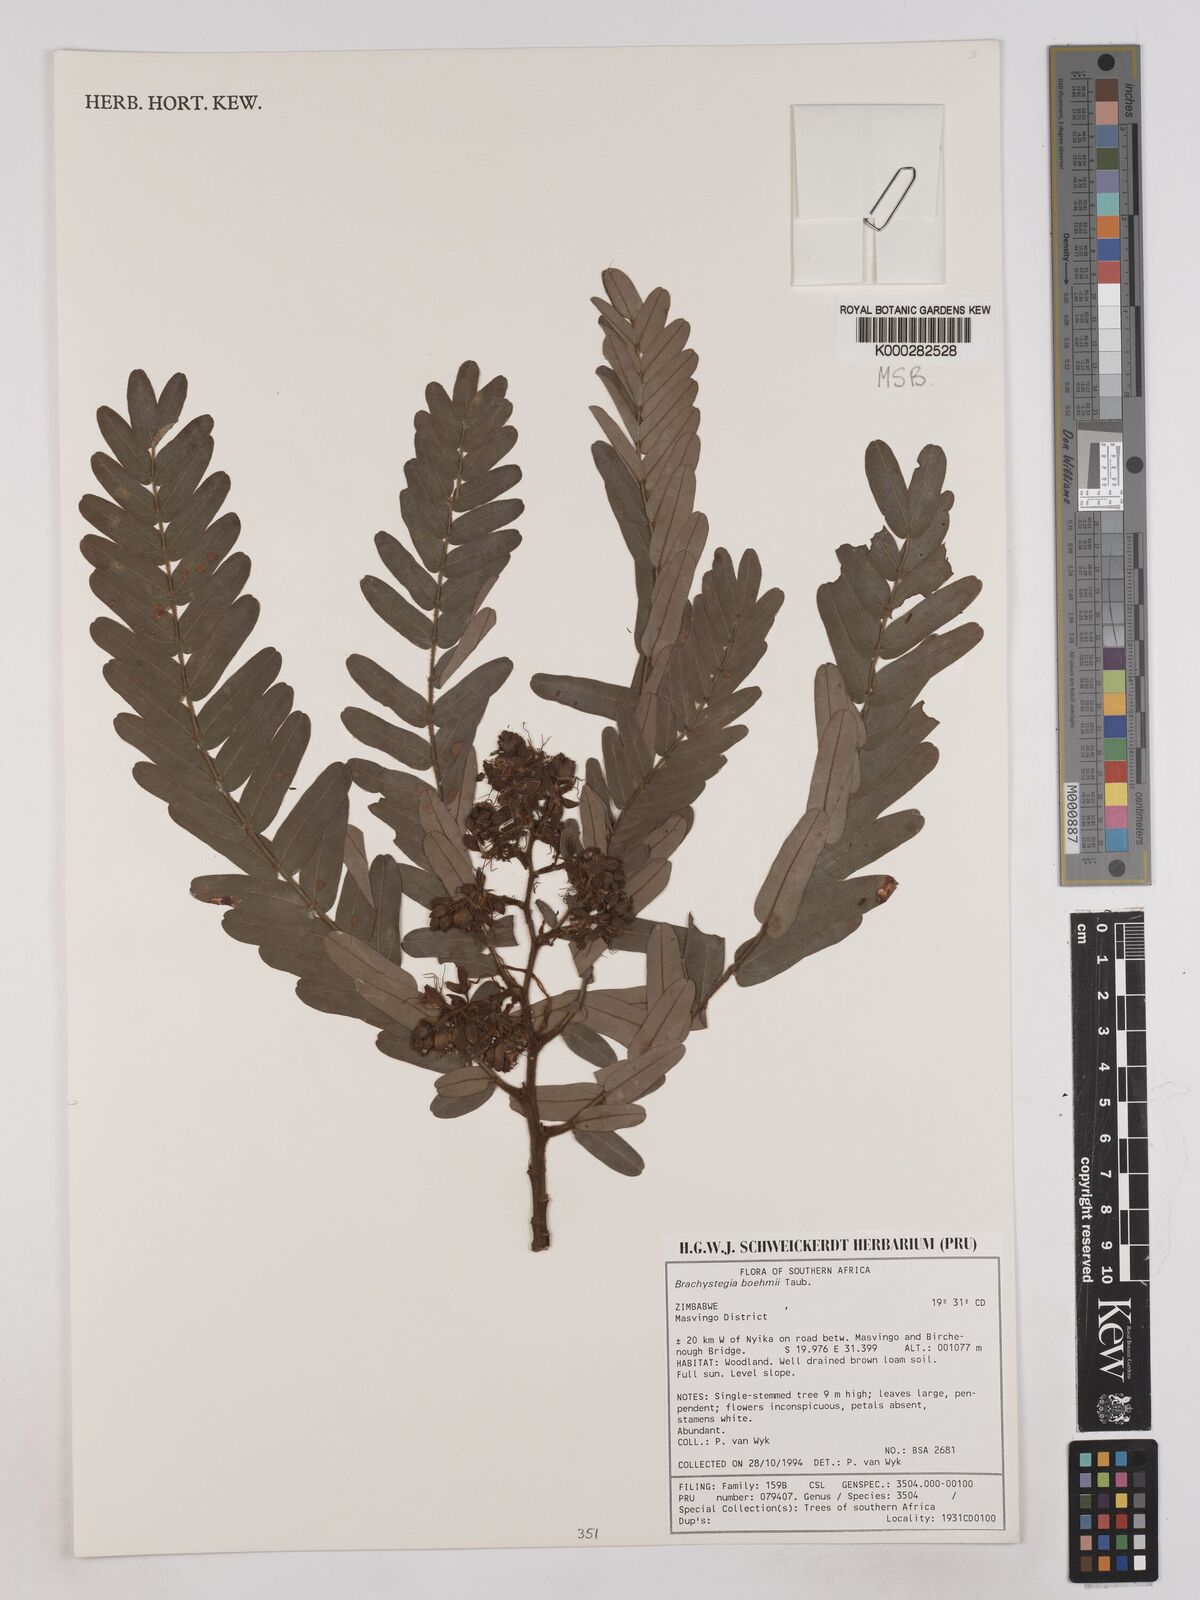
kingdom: Plantae
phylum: Tracheophyta
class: Magnoliopsida
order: Fabales
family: Fabaceae
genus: Brachystegia
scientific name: Brachystegia boehmii
